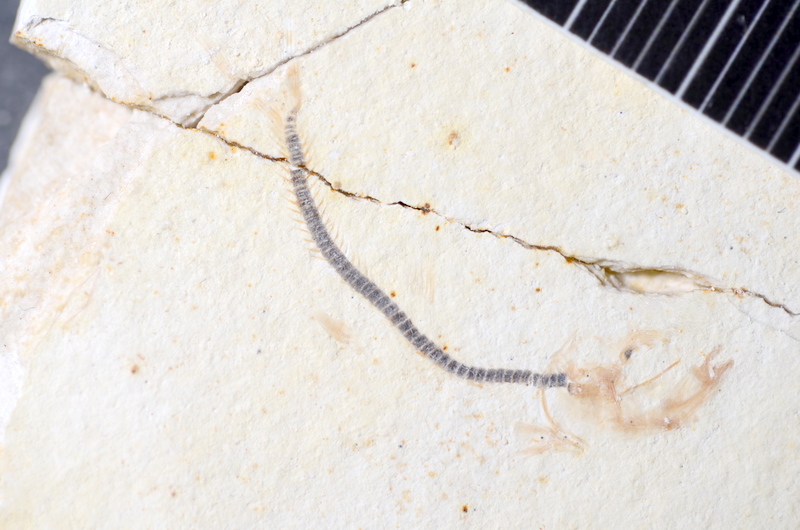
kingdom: Animalia
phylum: Chordata
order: Salmoniformes
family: Orthogonikleithridae
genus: Orthogonikleithrus
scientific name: Orthogonikleithrus hoelli
